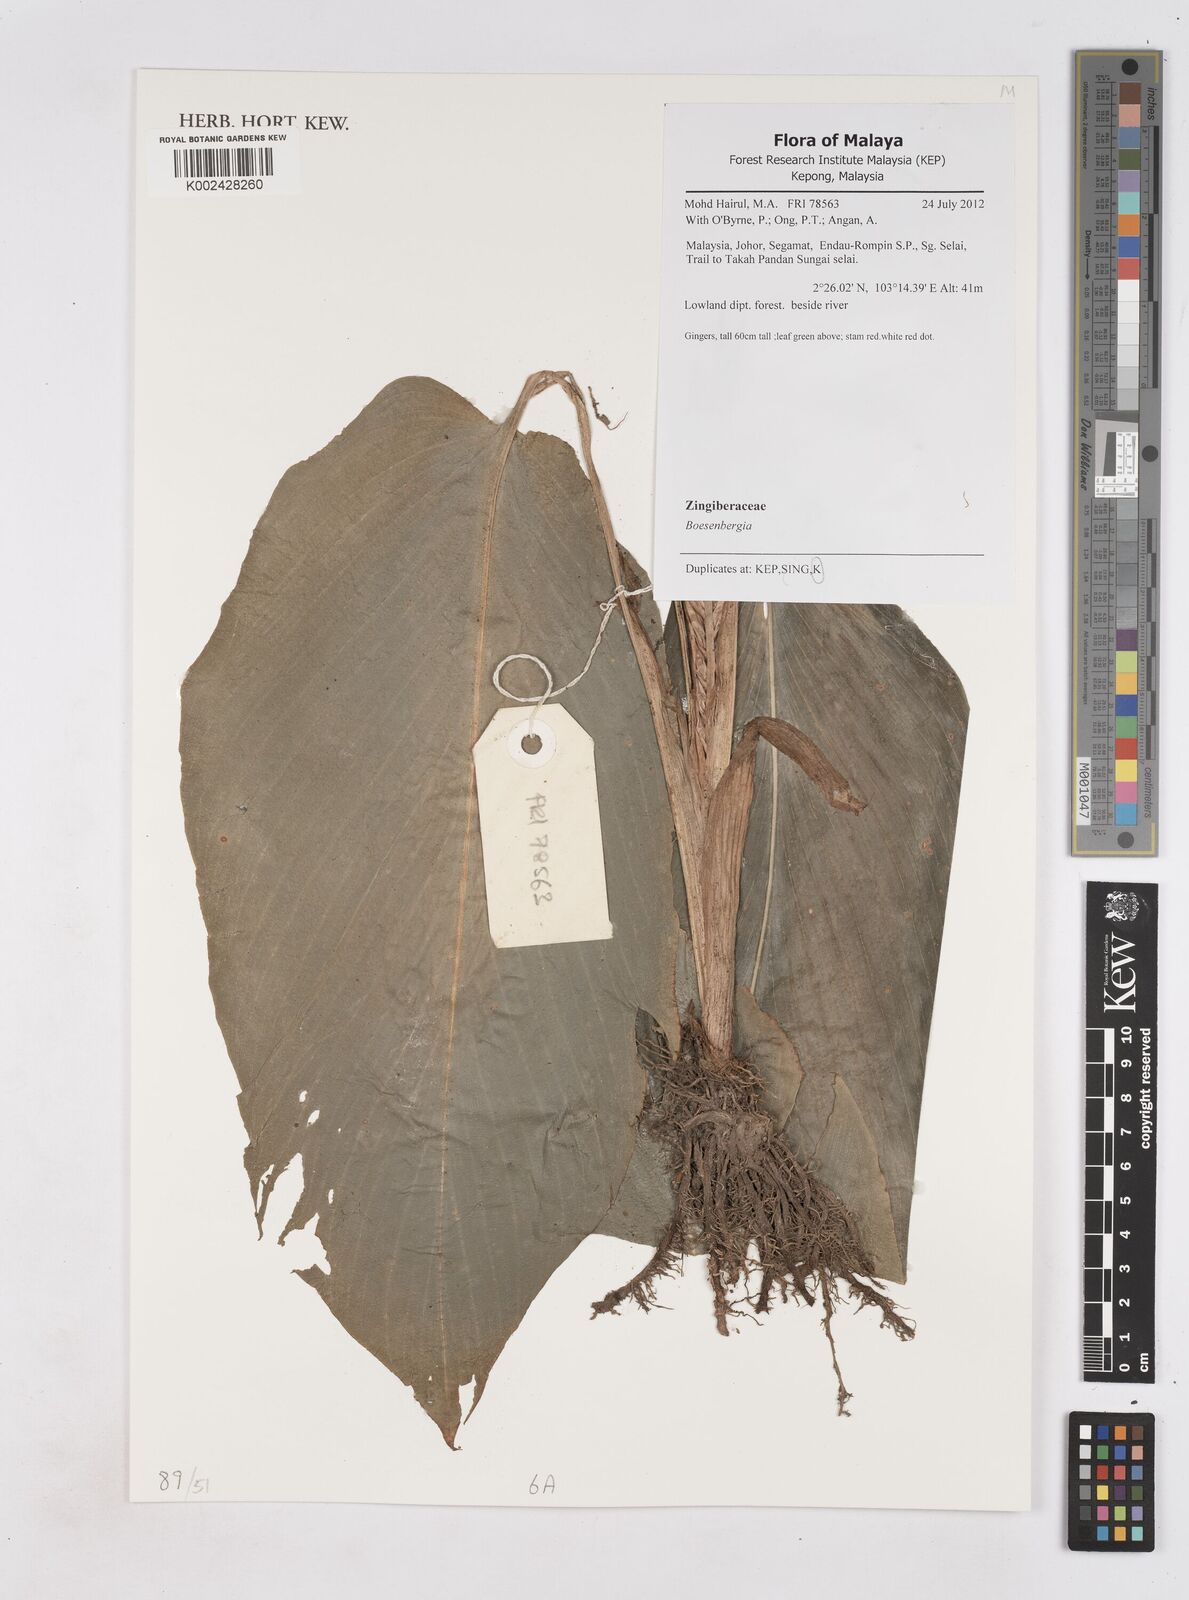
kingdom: Plantae
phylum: Tracheophyta
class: Liliopsida
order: Zingiberales
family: Zingiberaceae
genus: Boesenbergia
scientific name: Boesenbergia
